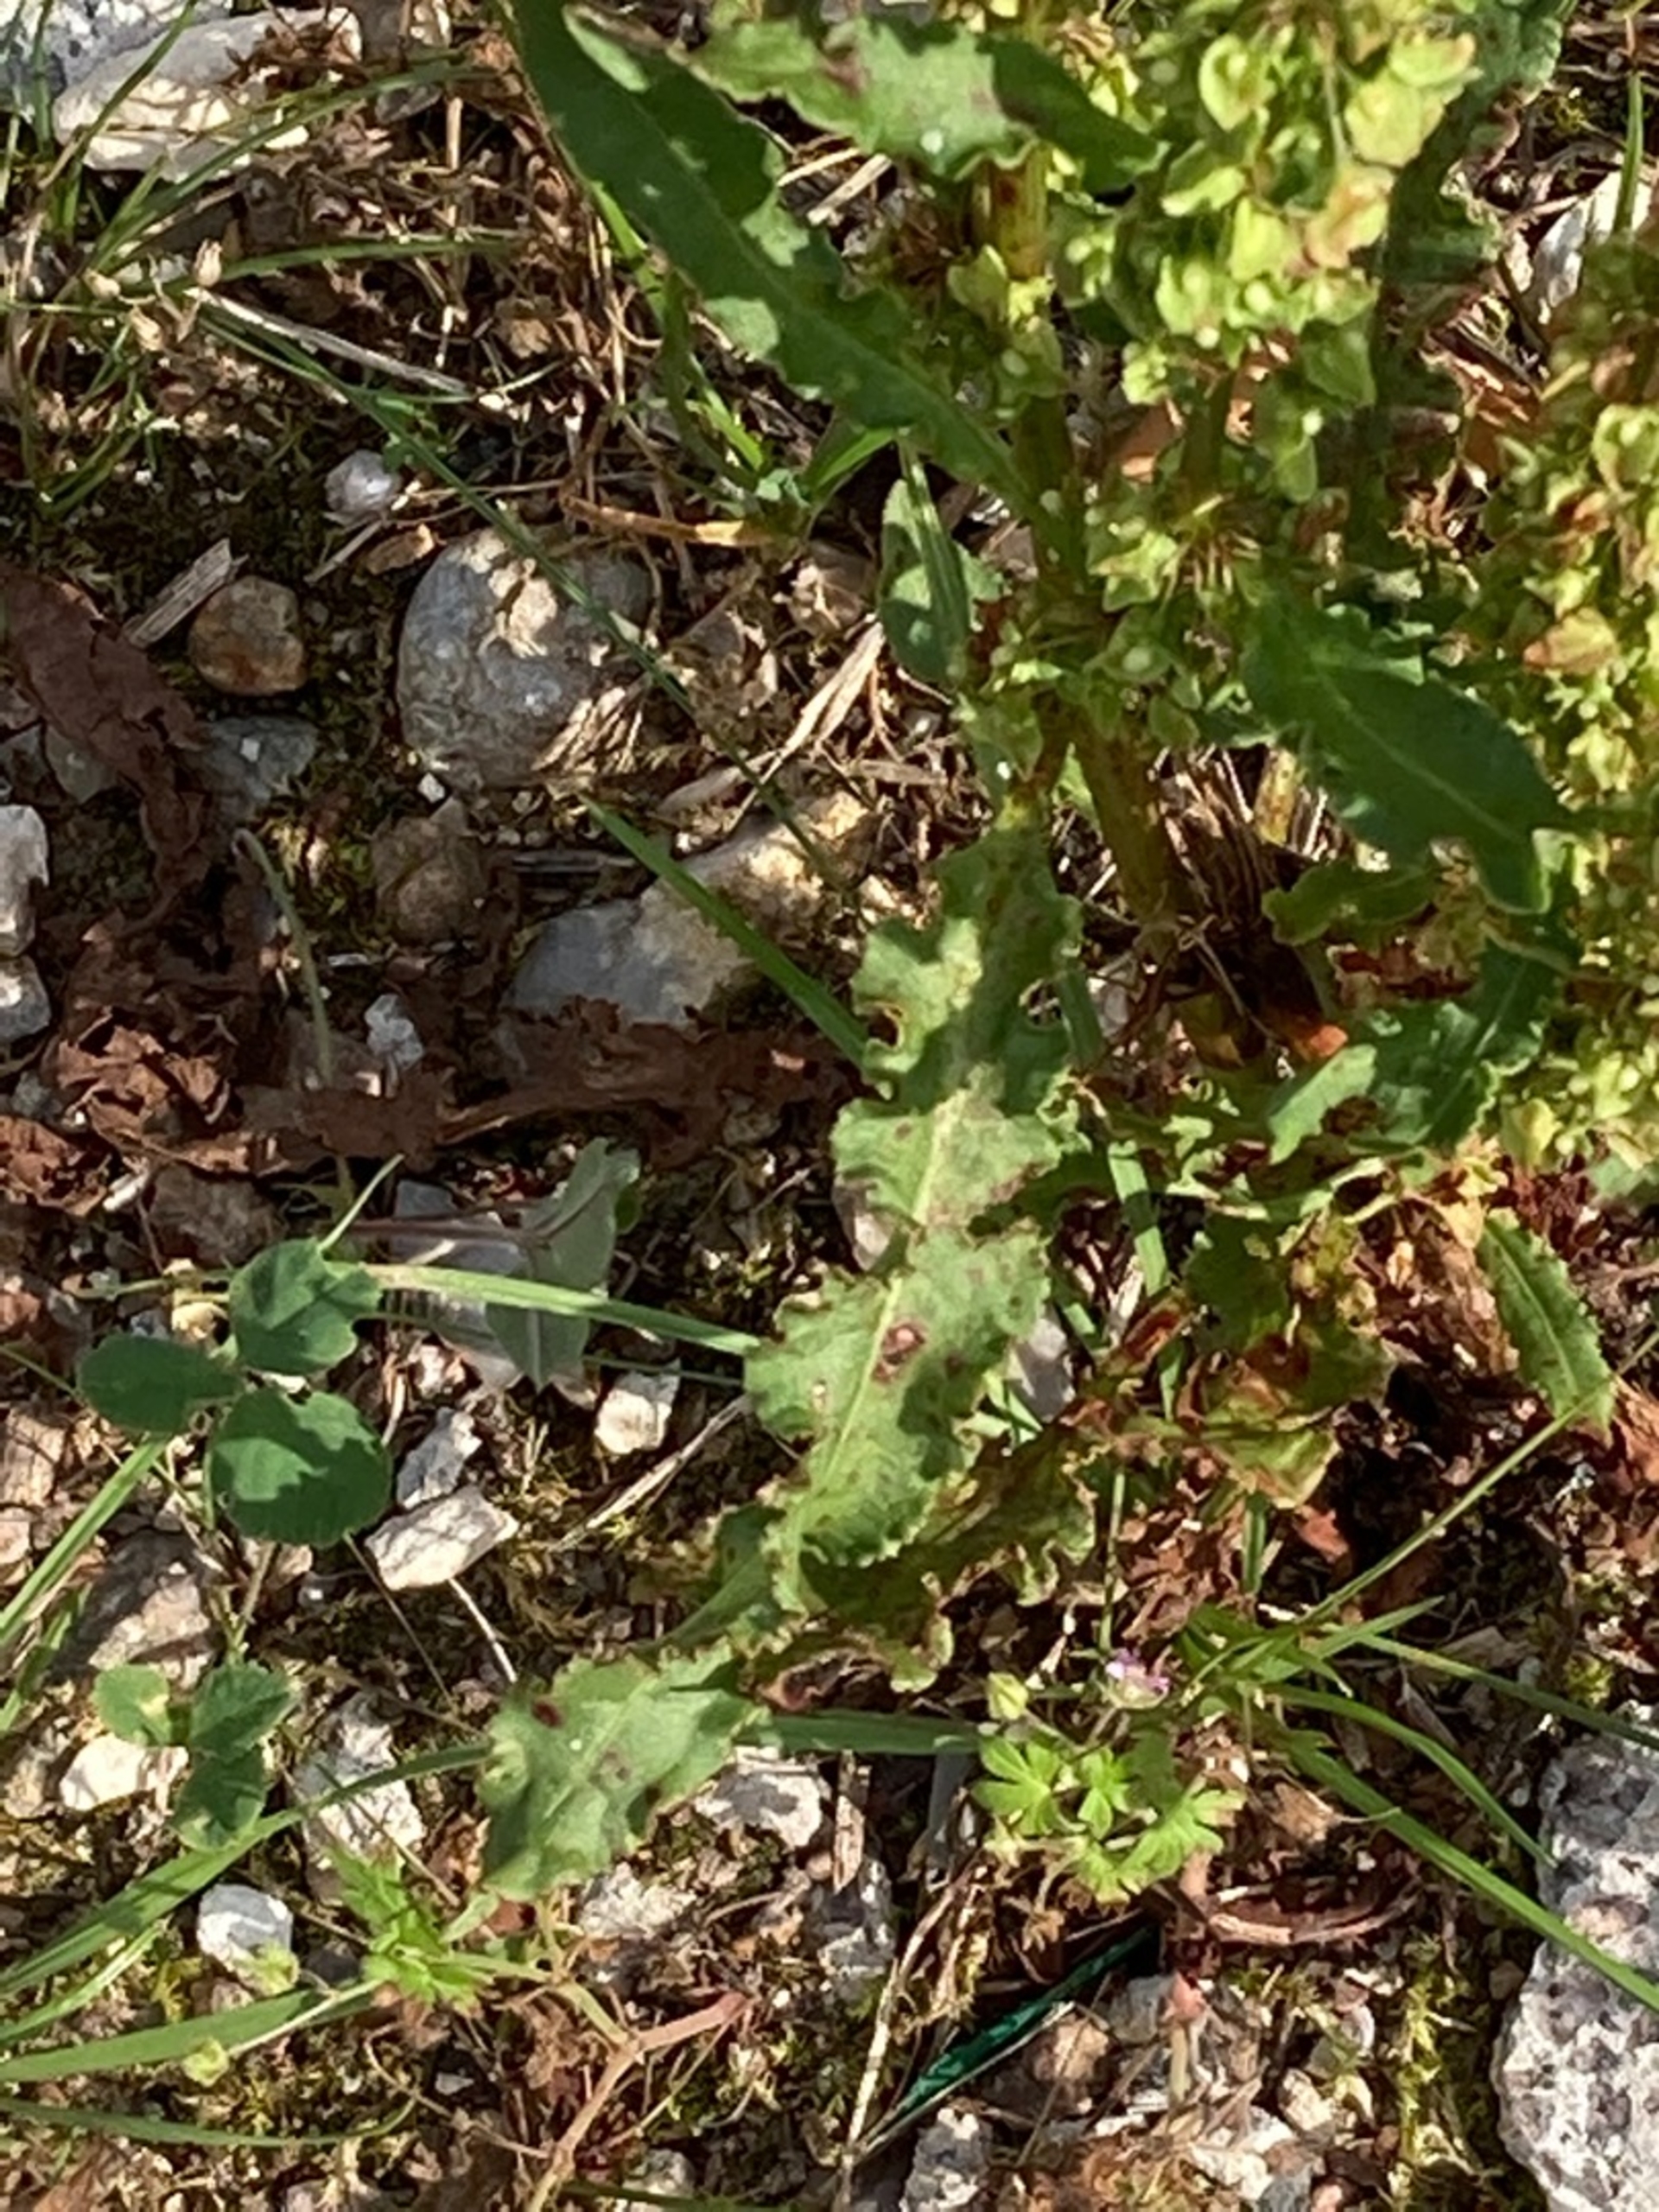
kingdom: Plantae
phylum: Tracheophyta
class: Magnoliopsida
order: Caryophyllales
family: Polygonaceae
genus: Rumex
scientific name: Rumex crispus
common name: Kruset skræppe
